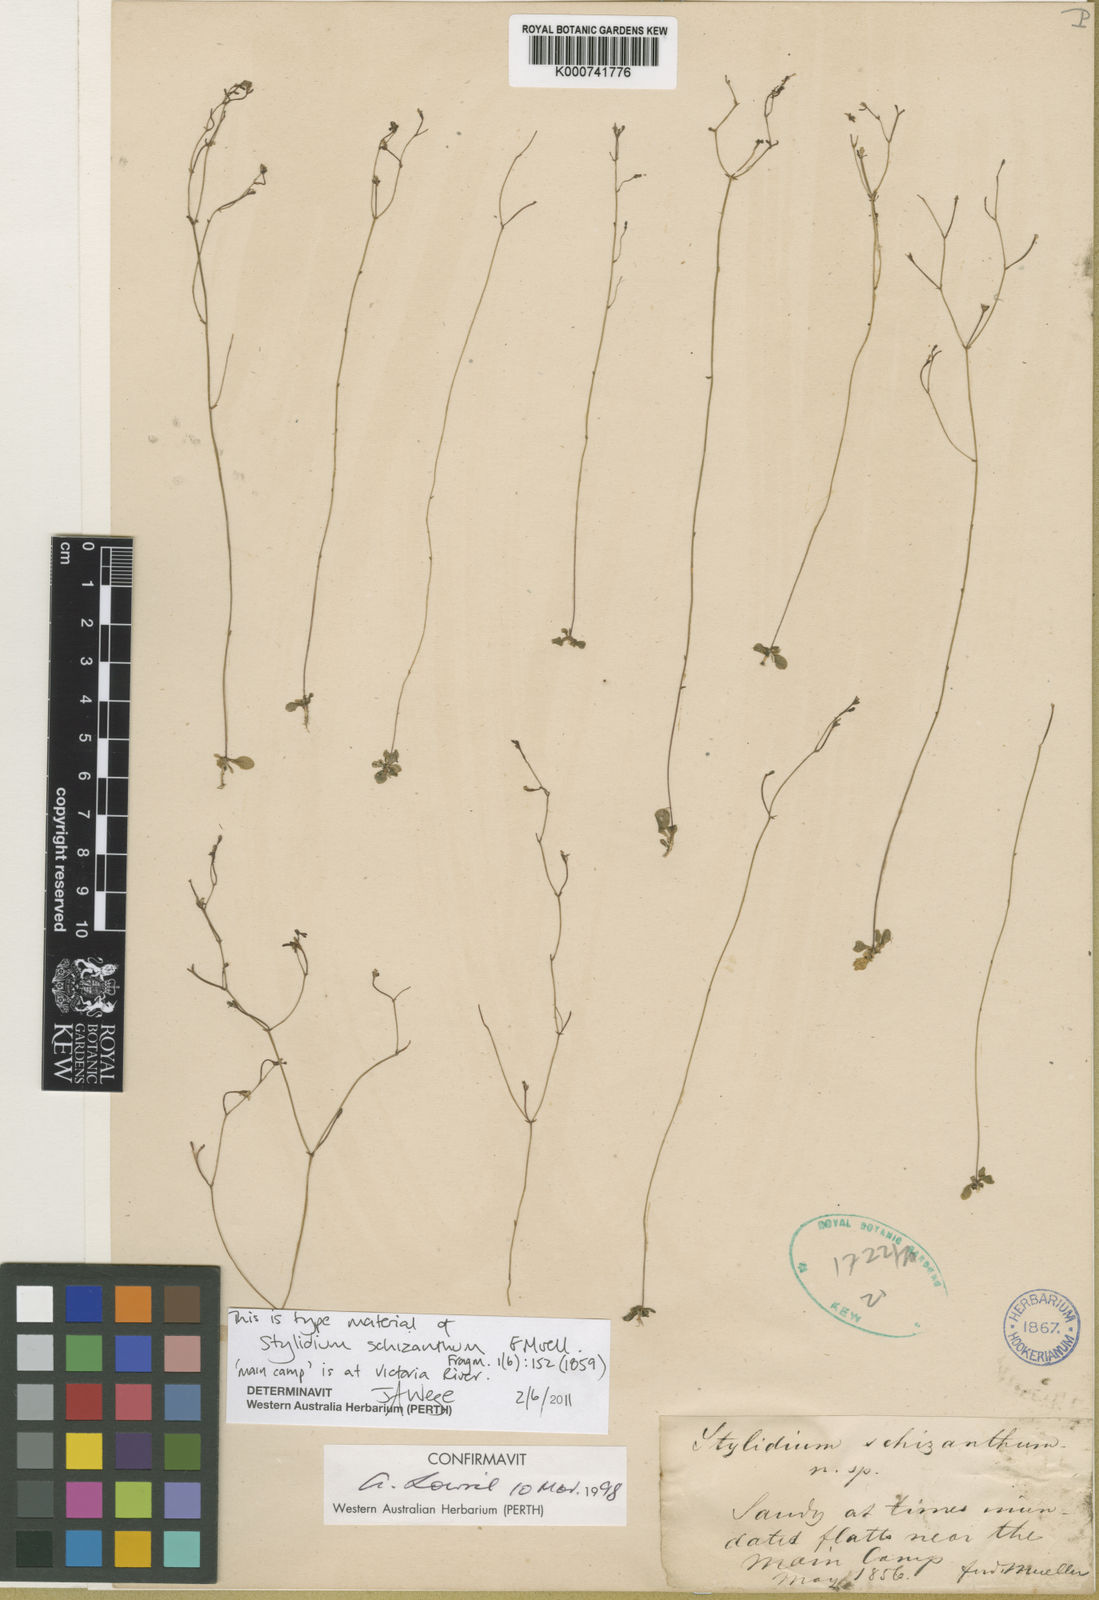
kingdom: Plantae
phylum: Tracheophyta
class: Magnoliopsida
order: Asterales
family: Stylidiaceae
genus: Stylidium
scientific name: Stylidium schizanthum
